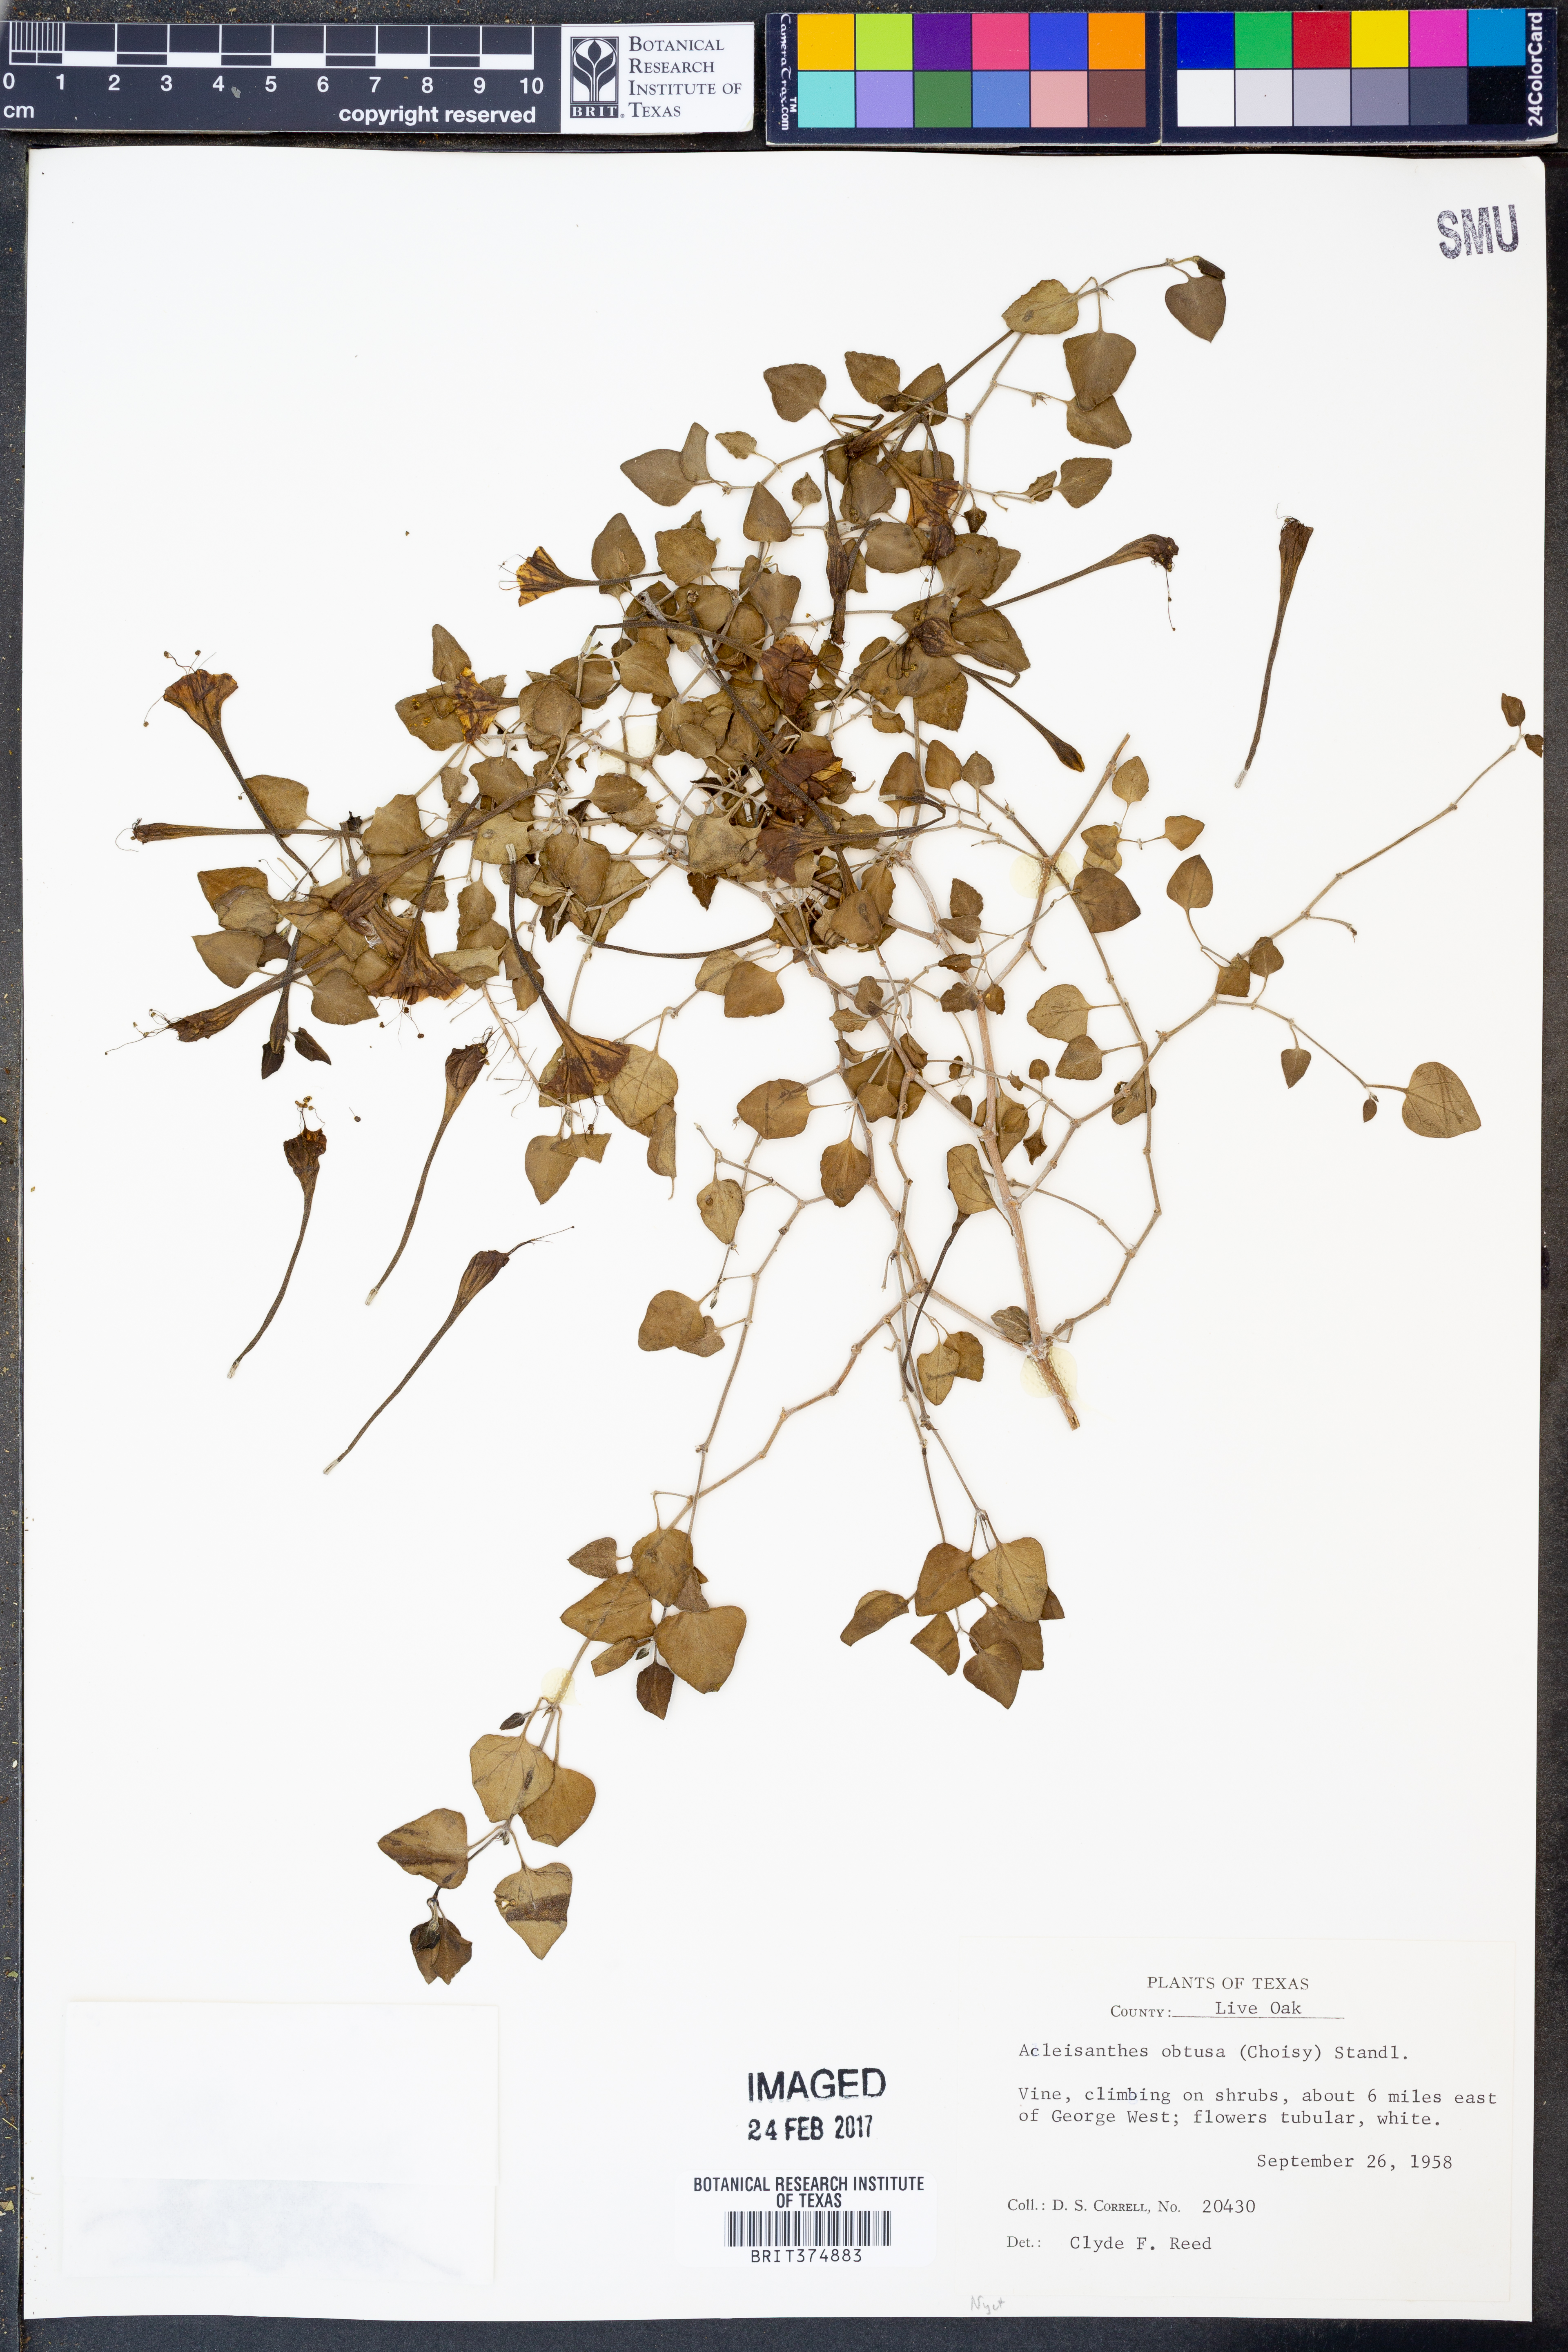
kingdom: Plantae
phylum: Tracheophyta
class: Magnoliopsida
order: Caryophyllales
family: Nyctaginaceae
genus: Acleisanthes
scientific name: Acleisanthes obtusa
